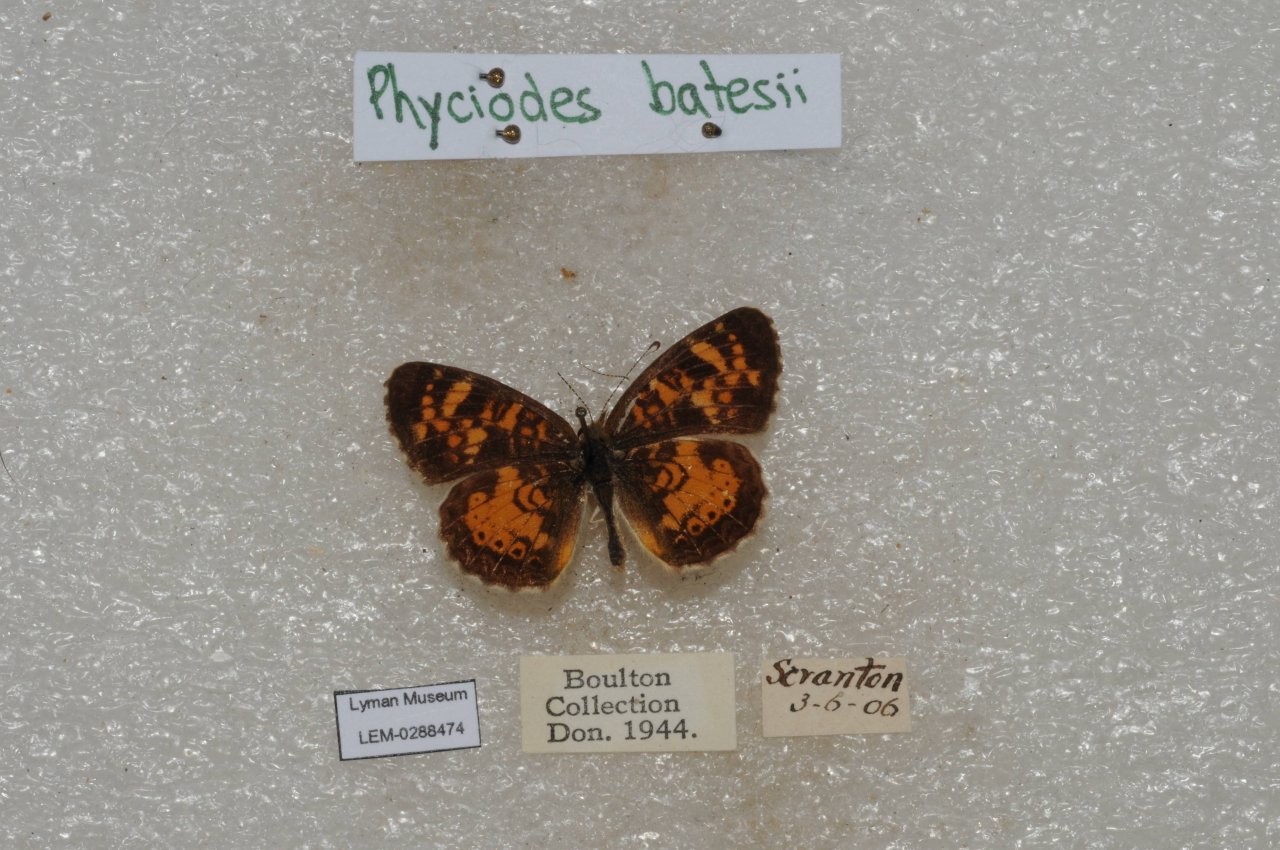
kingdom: Animalia
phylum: Arthropoda
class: Insecta
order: Lepidoptera
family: Nymphalidae
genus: Phyciodes
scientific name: Phyciodes batesii
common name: Tawny Crescent
